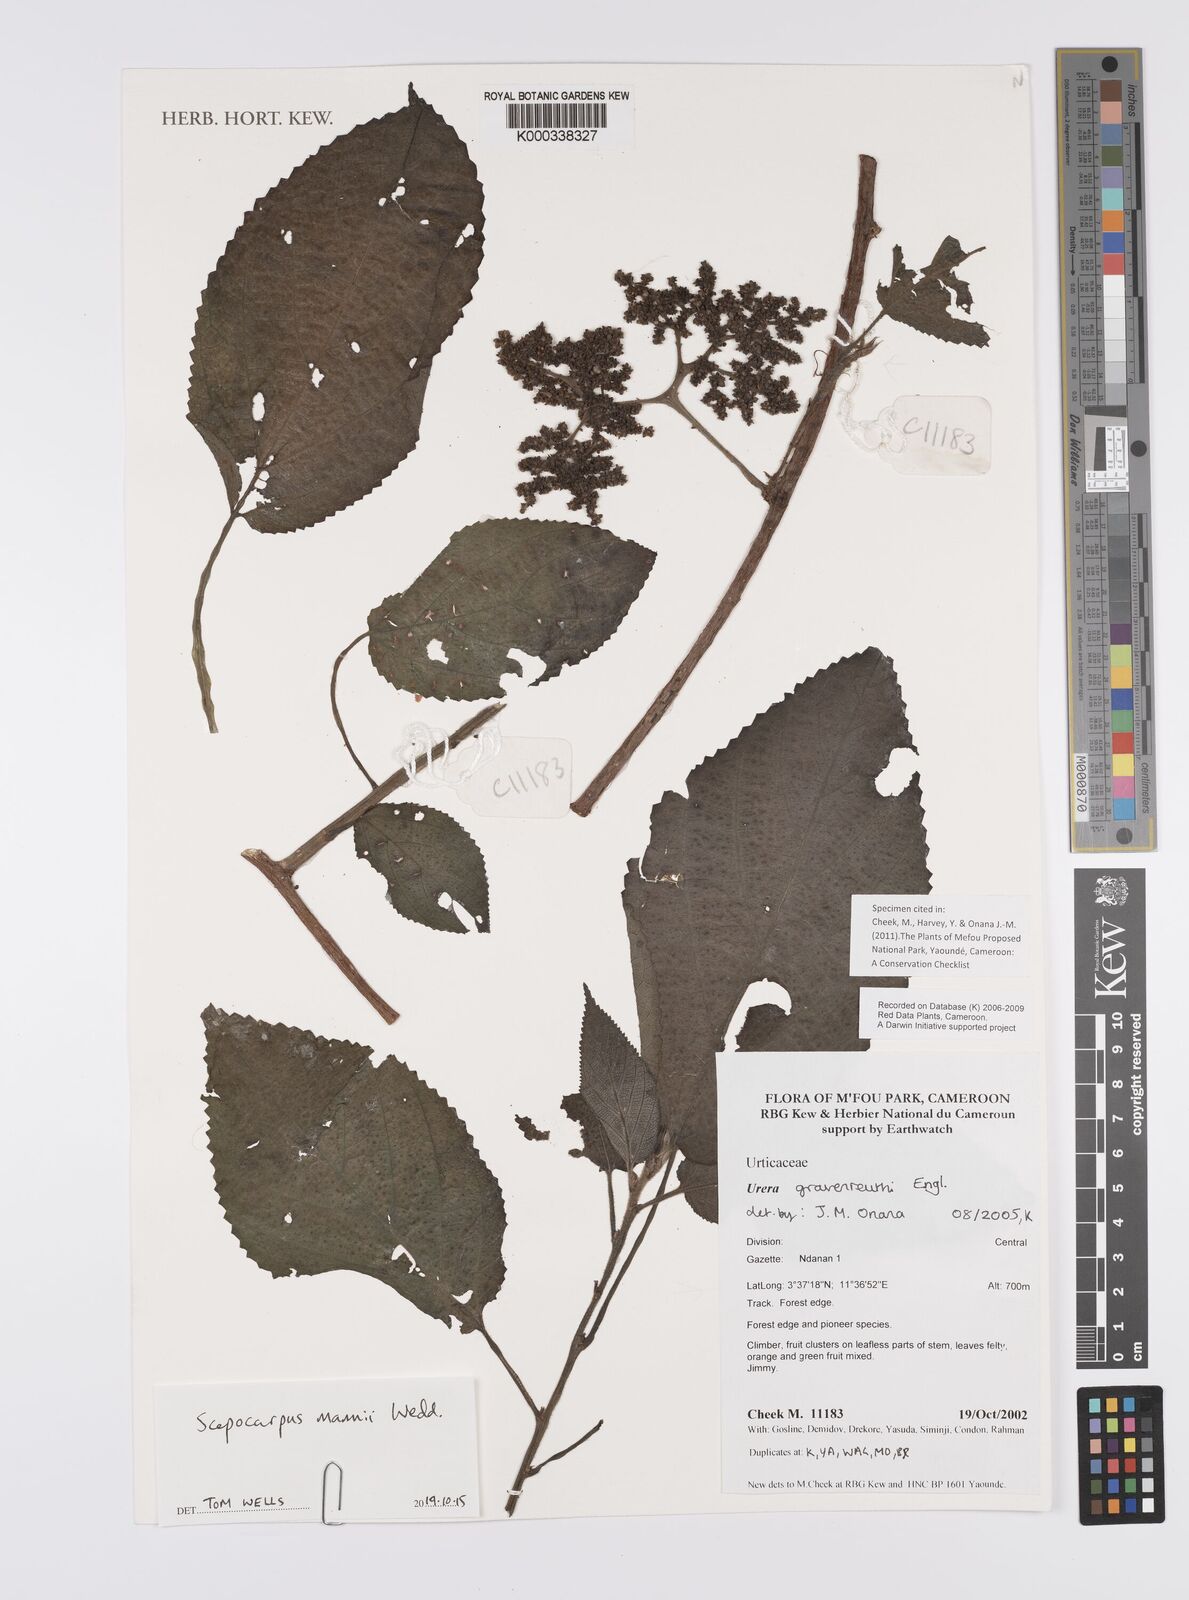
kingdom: Plantae
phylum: Tracheophyta
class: Magnoliopsida
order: Rosales
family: Urticaceae
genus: Scepocarpus
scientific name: Scepocarpus mannii
